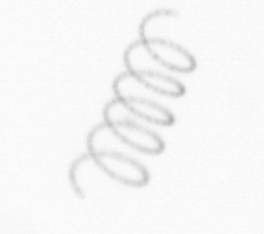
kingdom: Chromista
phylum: Ochrophyta
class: Bacillariophyceae
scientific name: Bacillariophyceae
